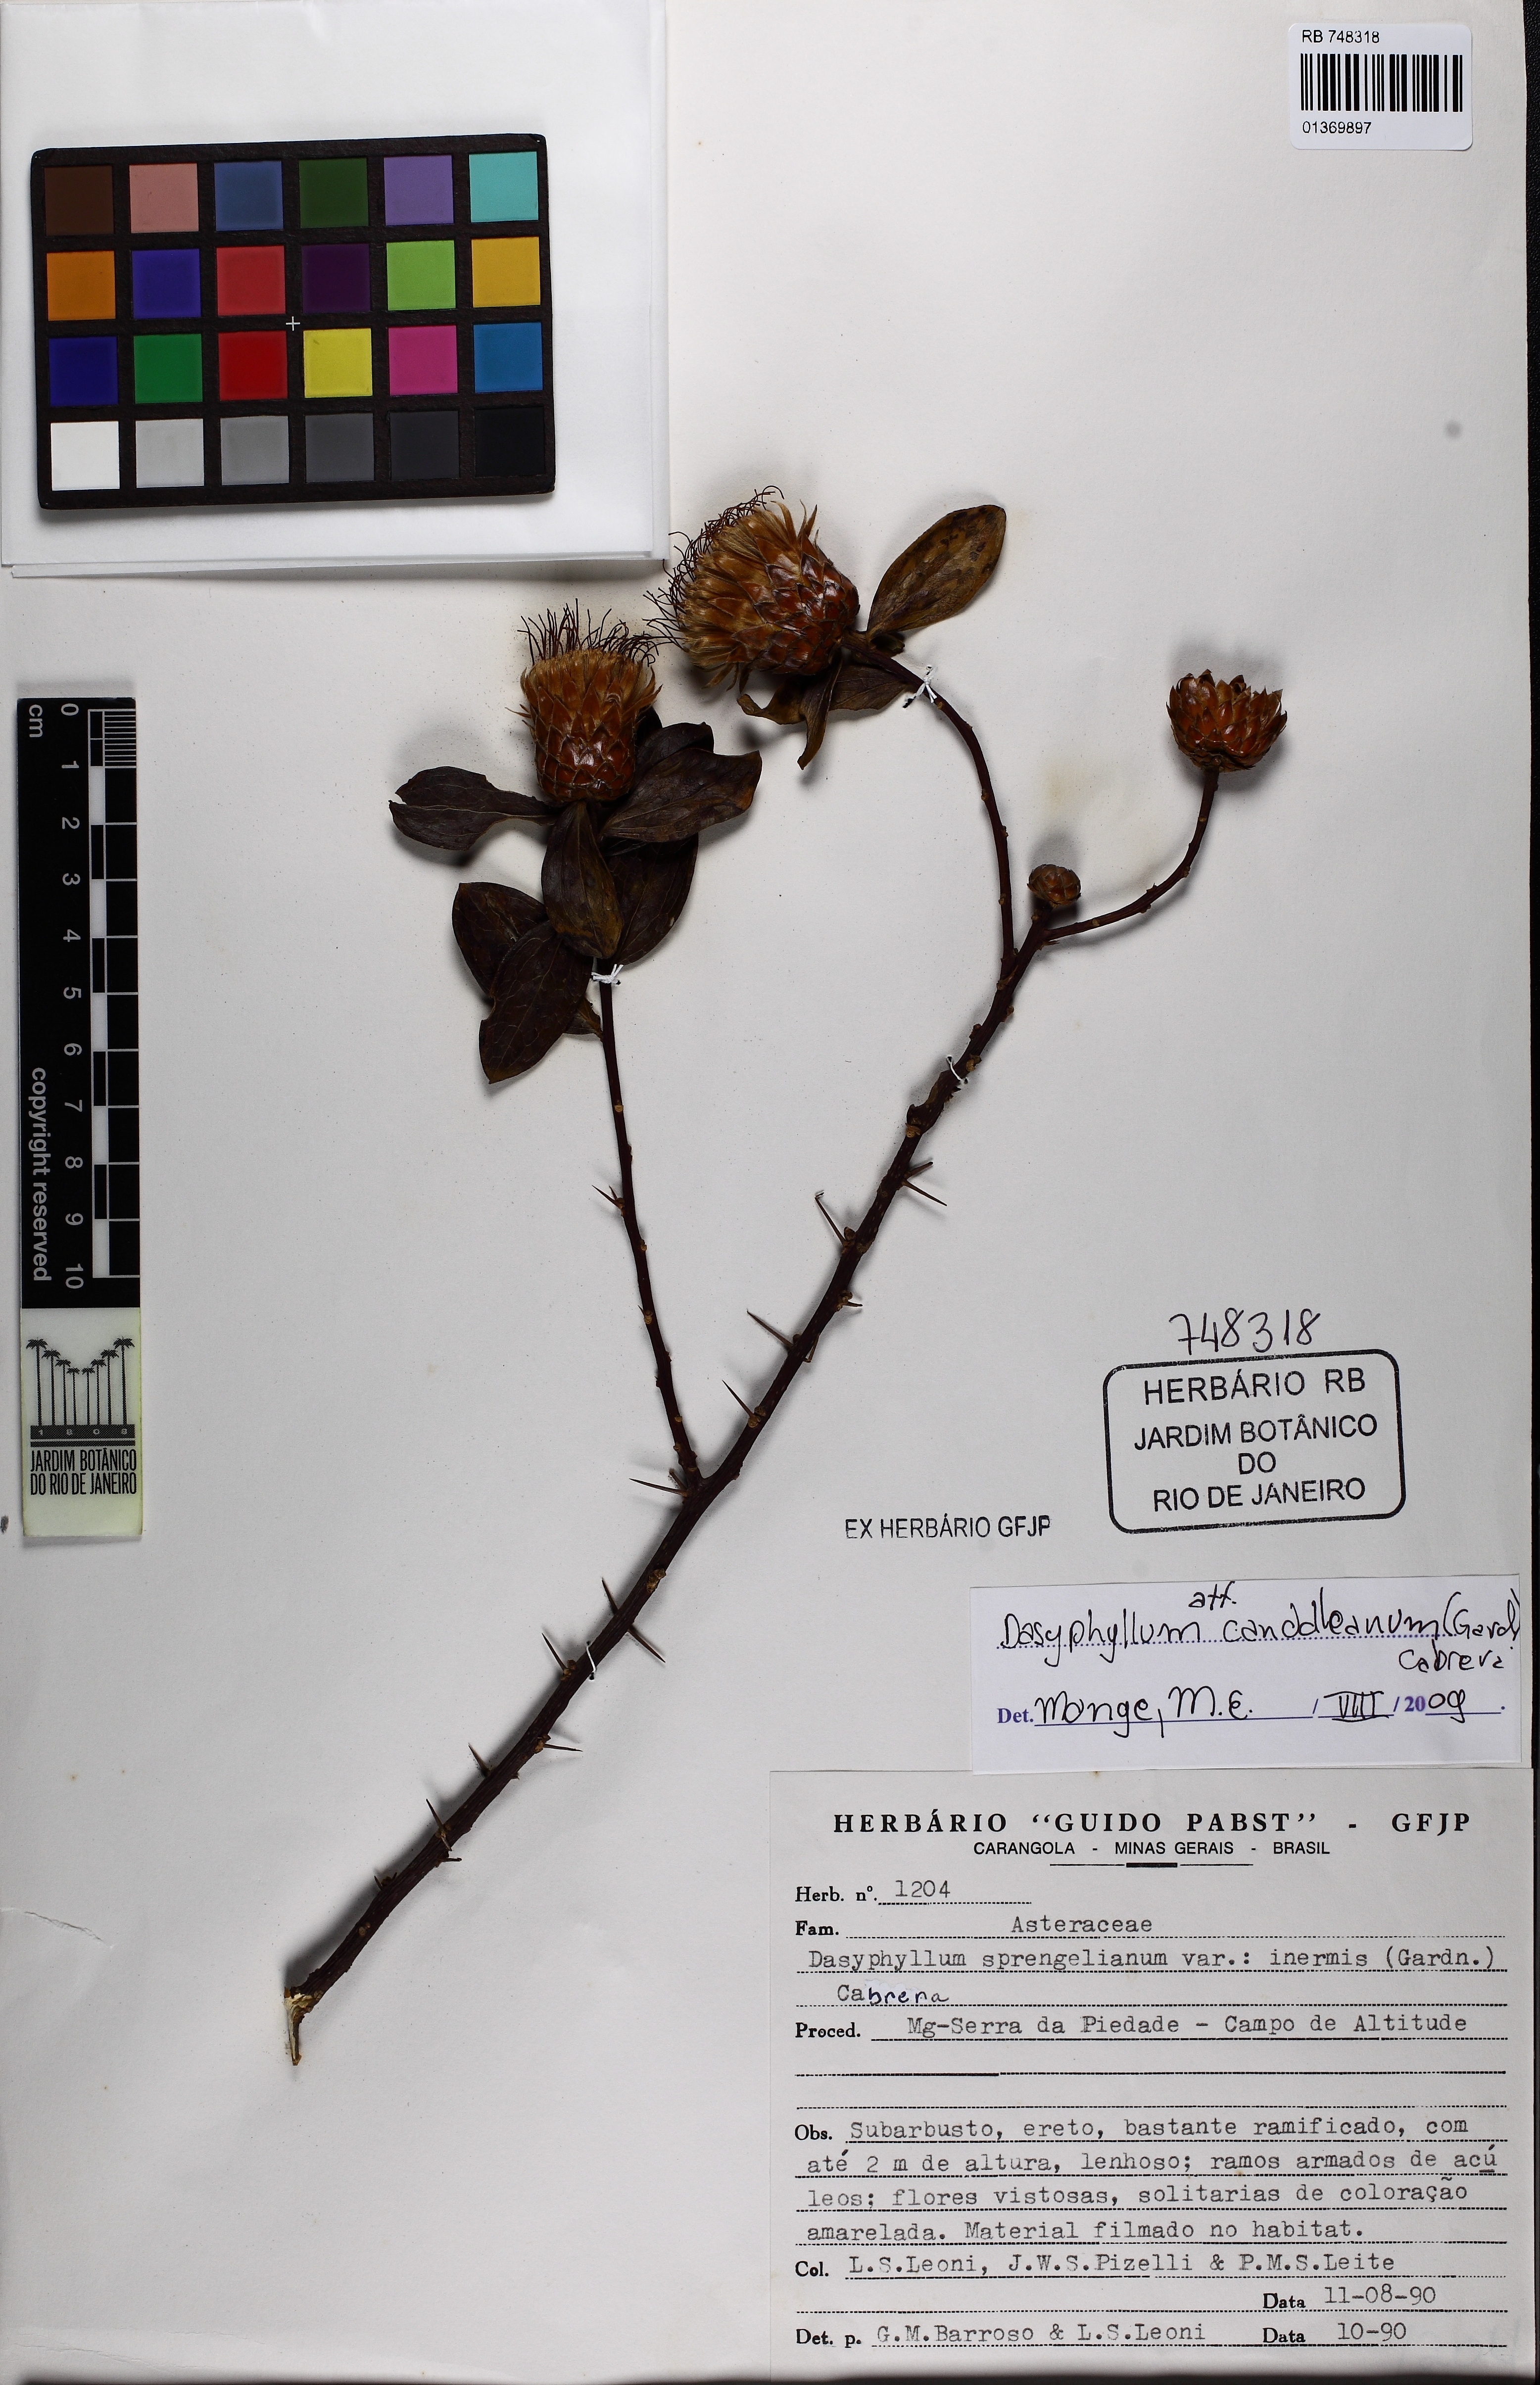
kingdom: Plantae
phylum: Tracheophyta
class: Magnoliopsida
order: Asterales
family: Asteraceae
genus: Dasyphyllum
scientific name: Dasyphyllum sprengelianum
